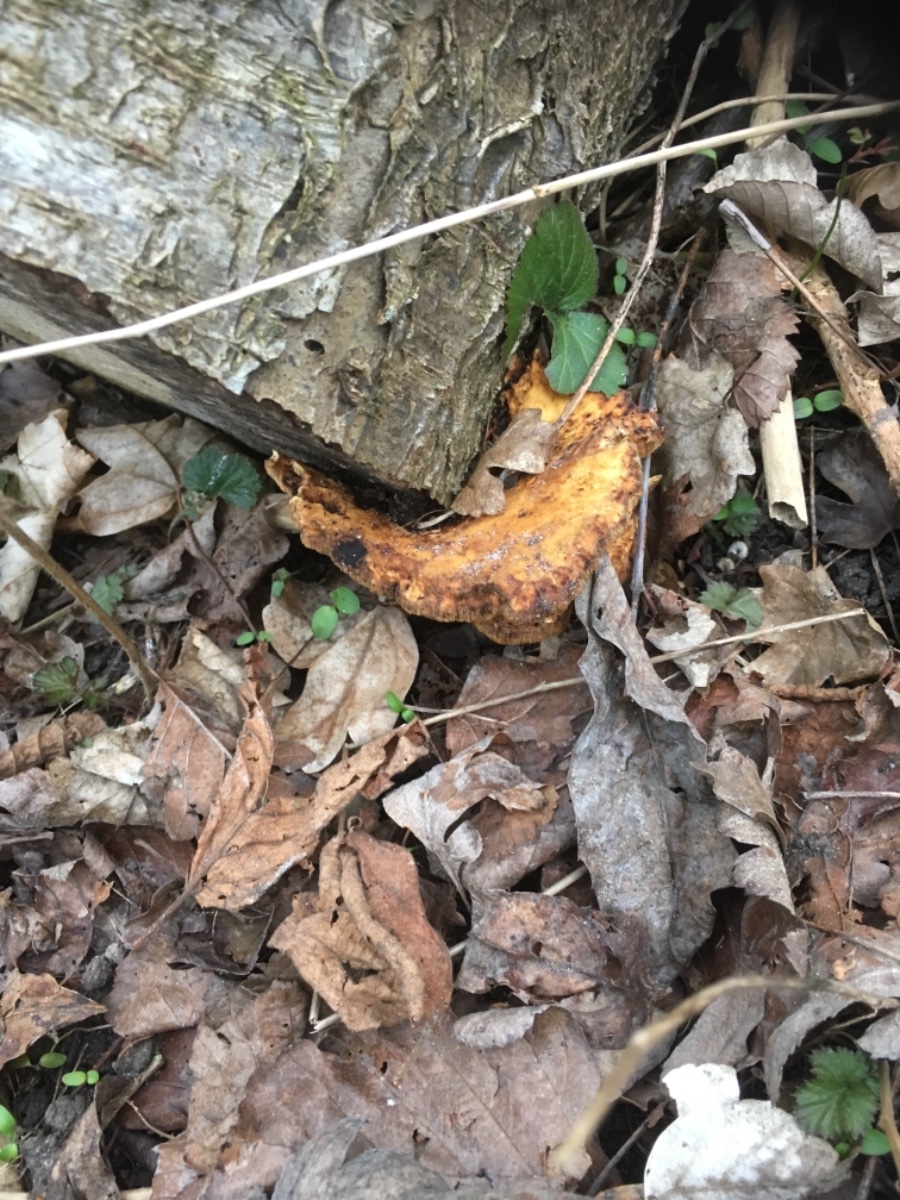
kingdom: Fungi
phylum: Basidiomycota
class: Agaricomycetes
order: Polyporales
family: Polyporaceae
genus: Cerioporus
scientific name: Cerioporus varius
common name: foranderlig stilkporesvamp
